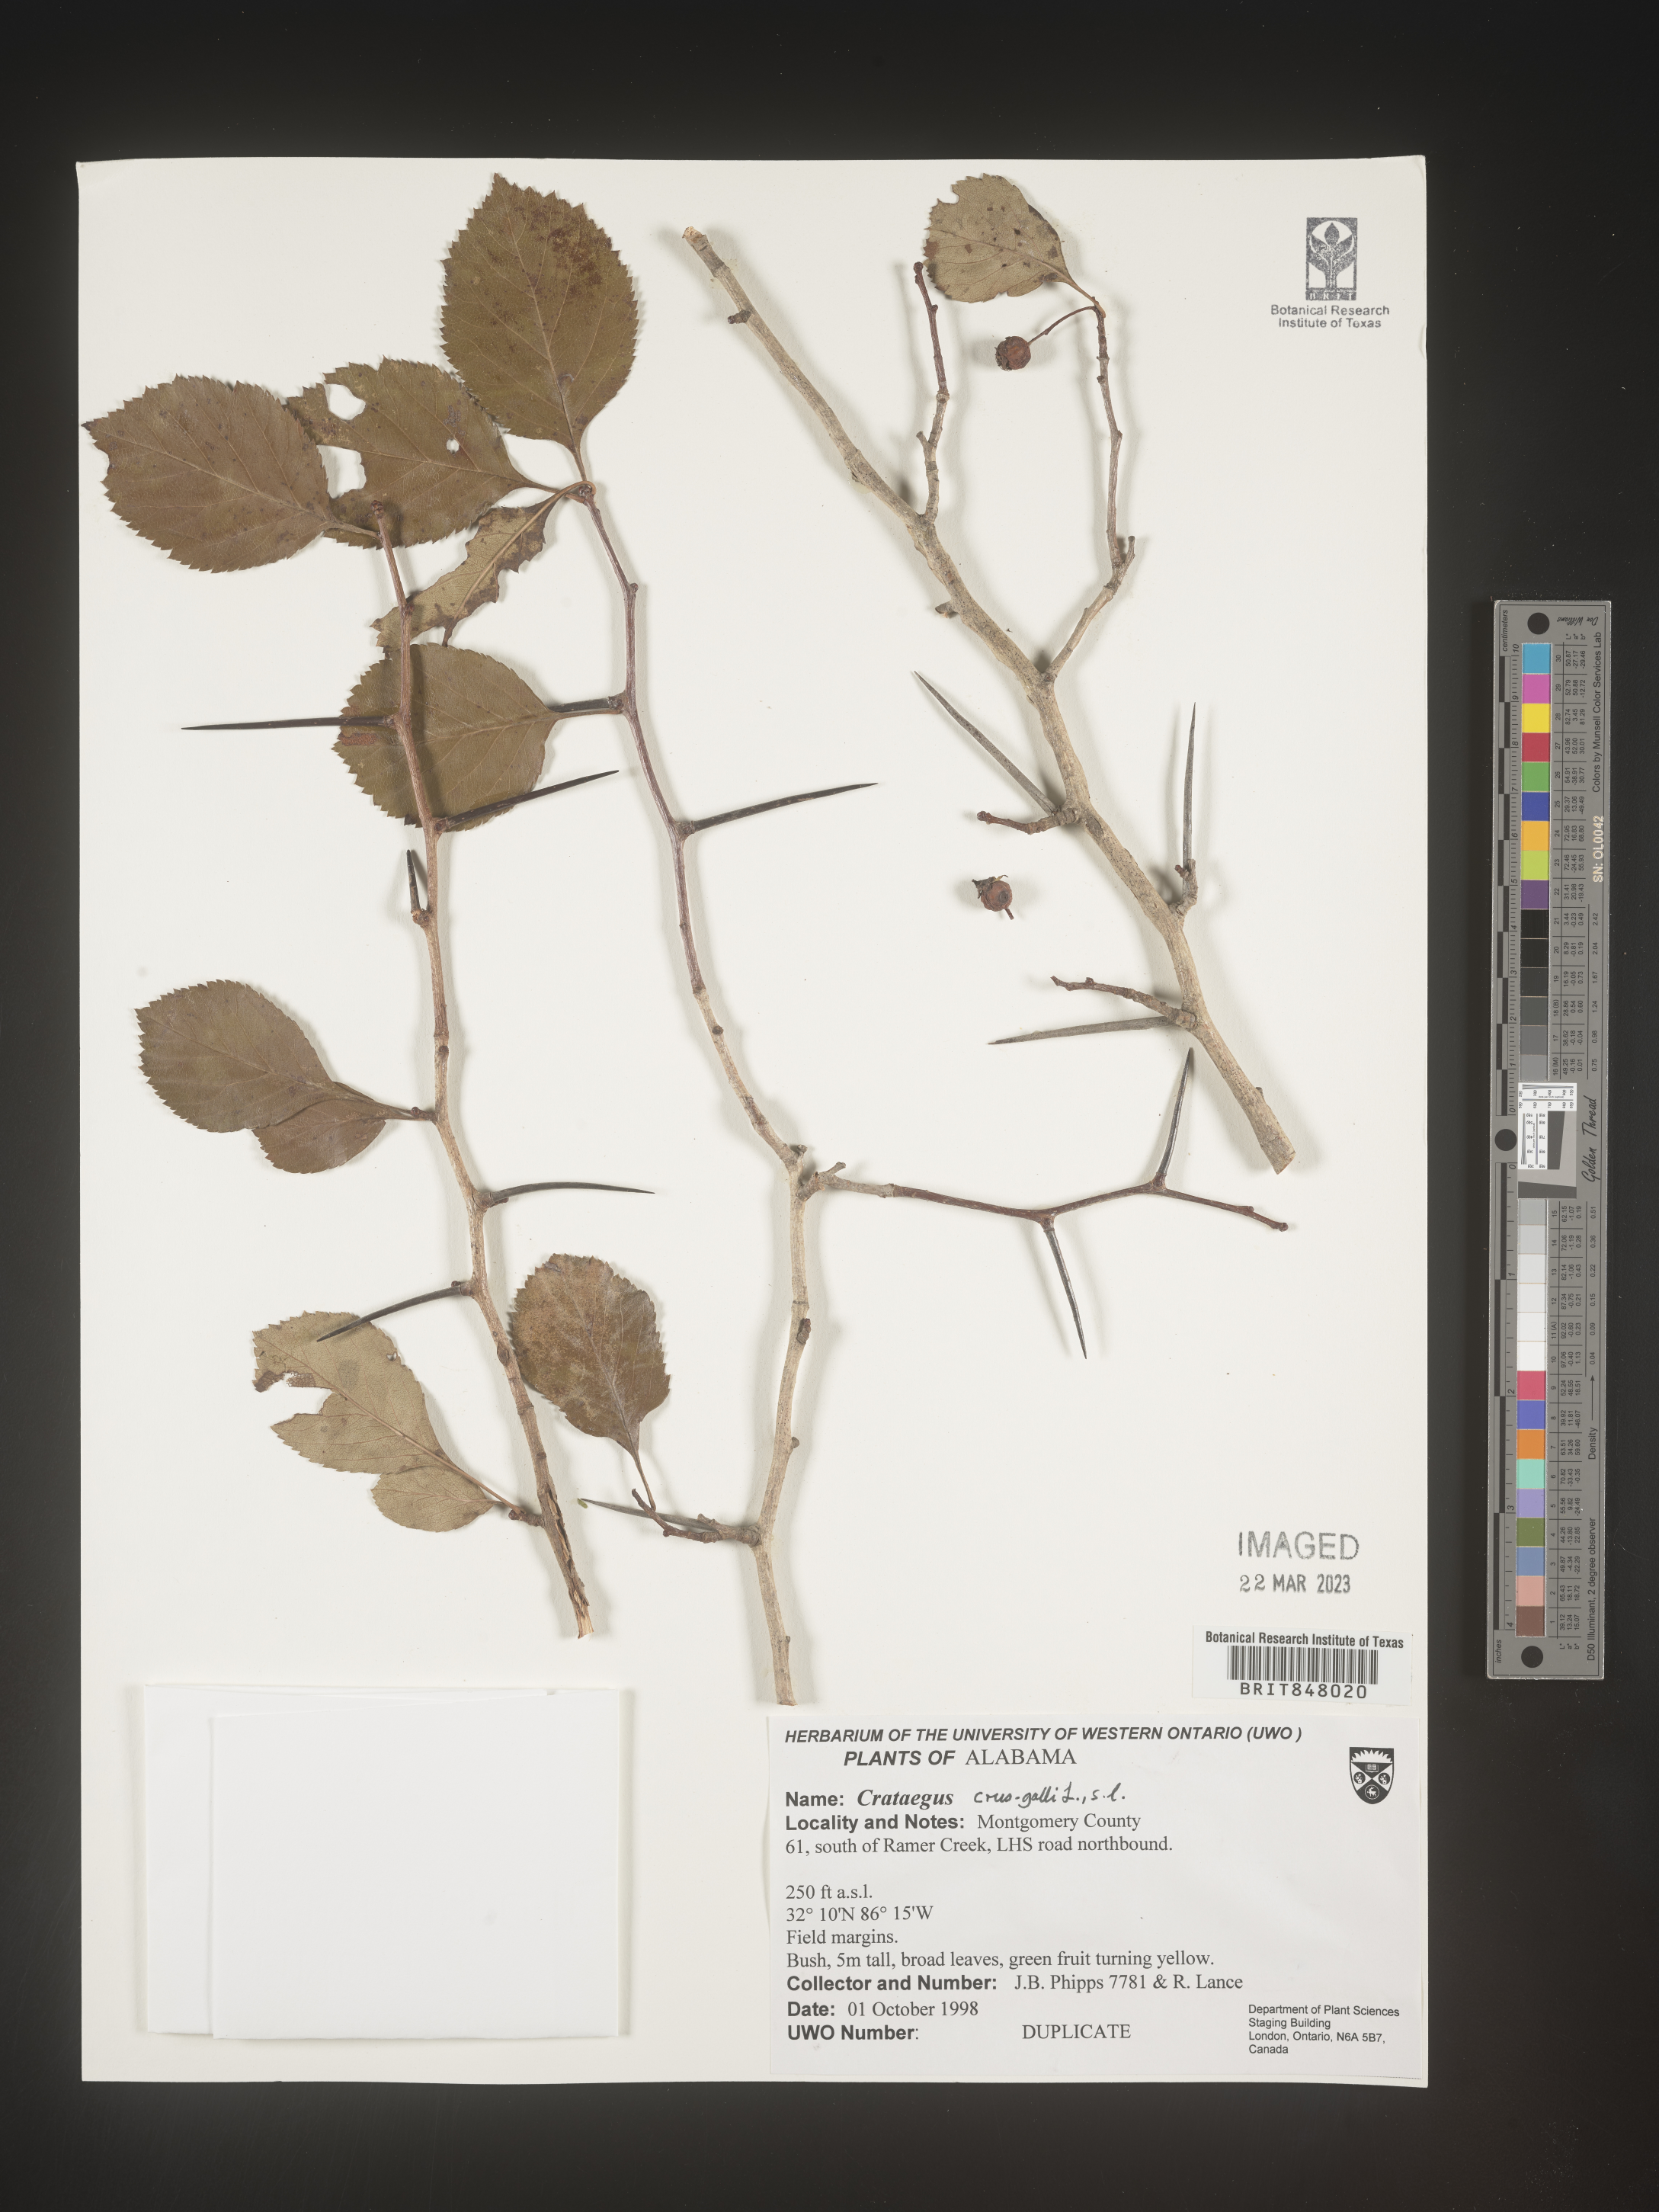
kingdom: Plantae
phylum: Tracheophyta
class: Magnoliopsida
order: Rosales
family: Rosaceae
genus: Crataegus
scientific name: Crataegus crus-galli
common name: Cockspurthorn
